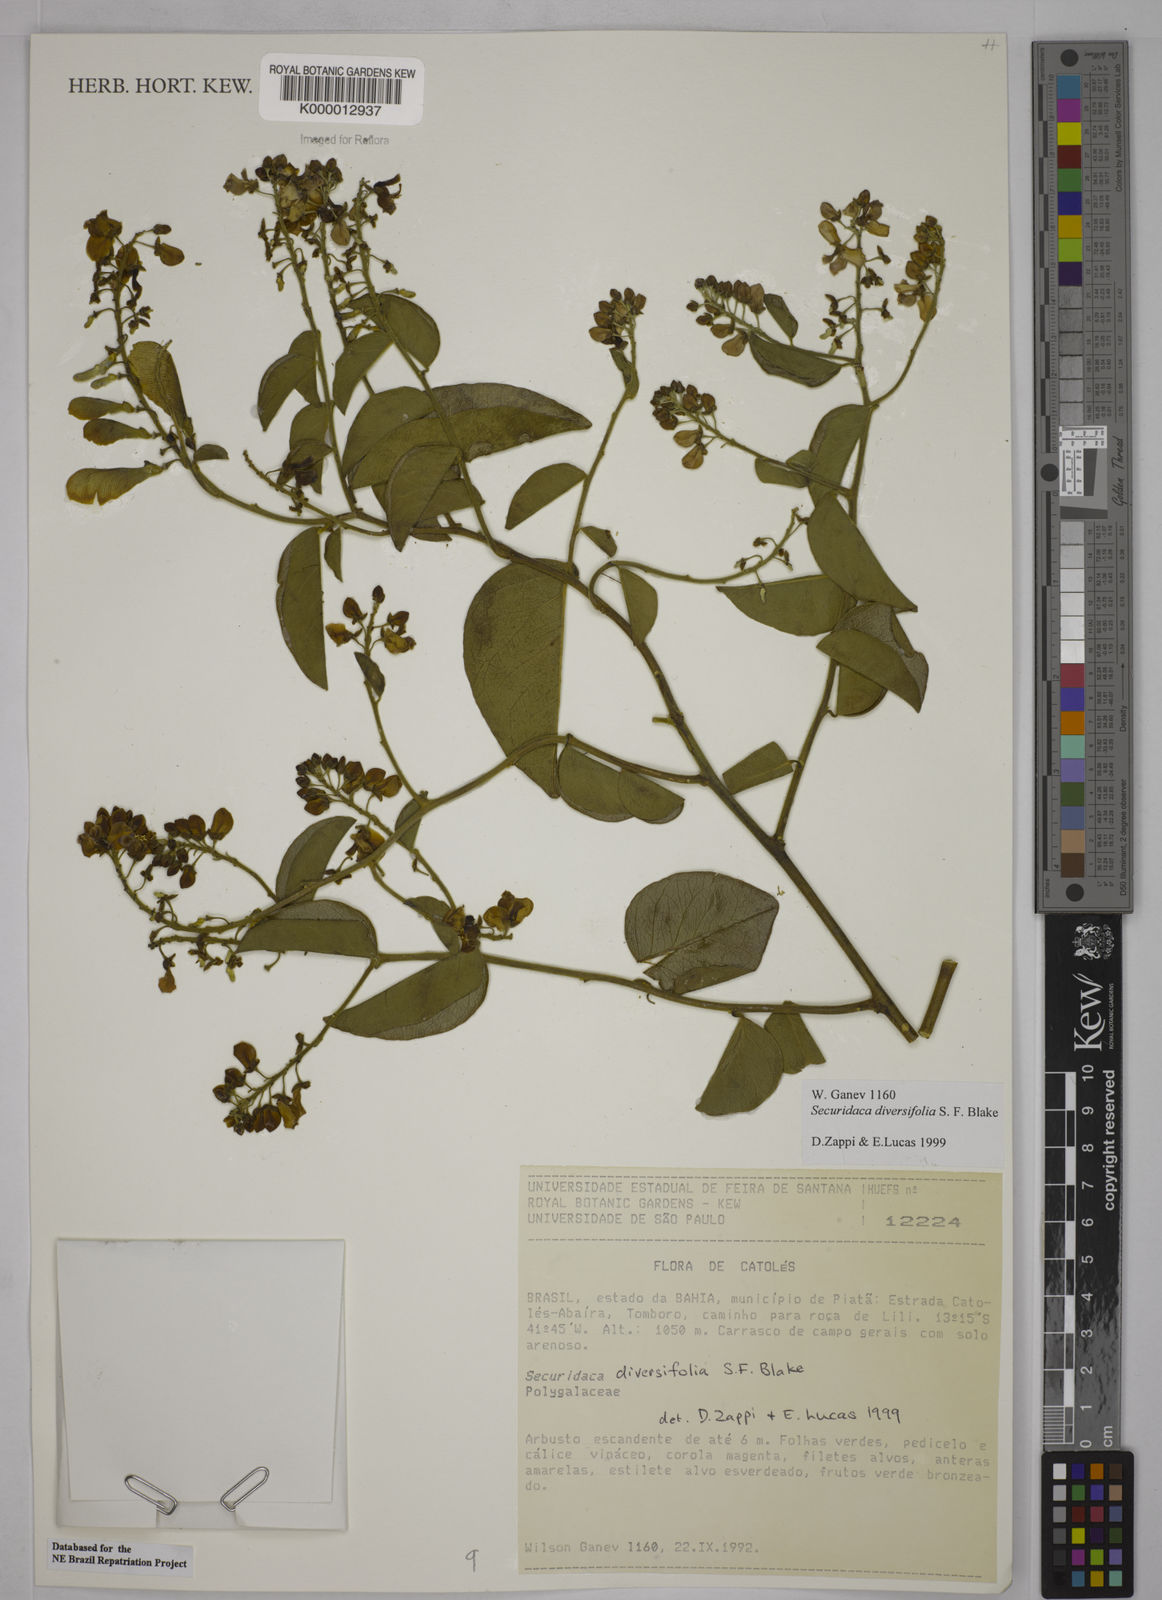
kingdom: Plantae
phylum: Tracheophyta
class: Magnoliopsida
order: Fabales
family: Polygalaceae
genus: Securidaca
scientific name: Securidaca diversifolia
